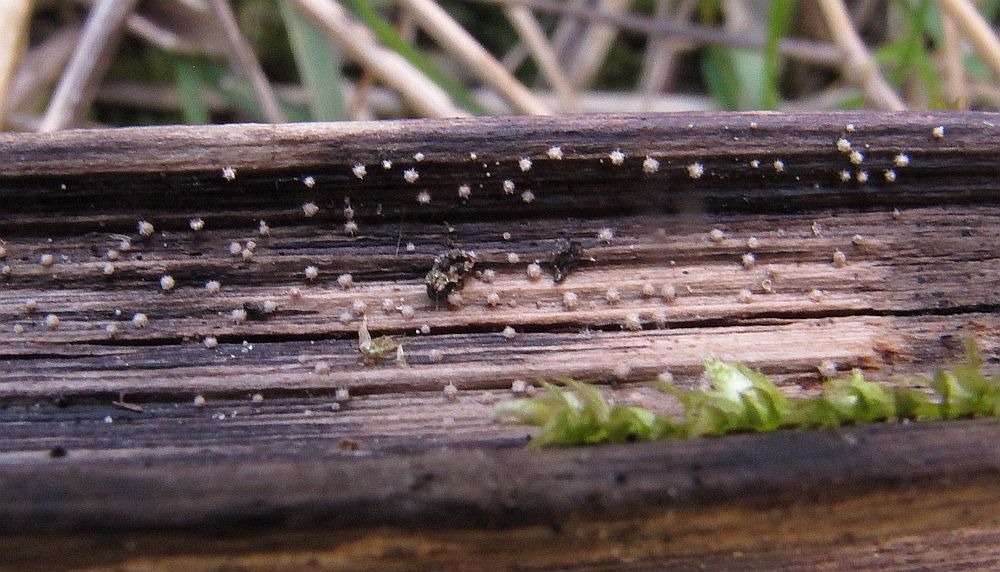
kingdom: Fungi
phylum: Ascomycota
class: Leotiomycetes
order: Helotiales
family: Lachnaceae
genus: Lachnum
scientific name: Lachnum mollissimum
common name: flødefarvet frynseskive
